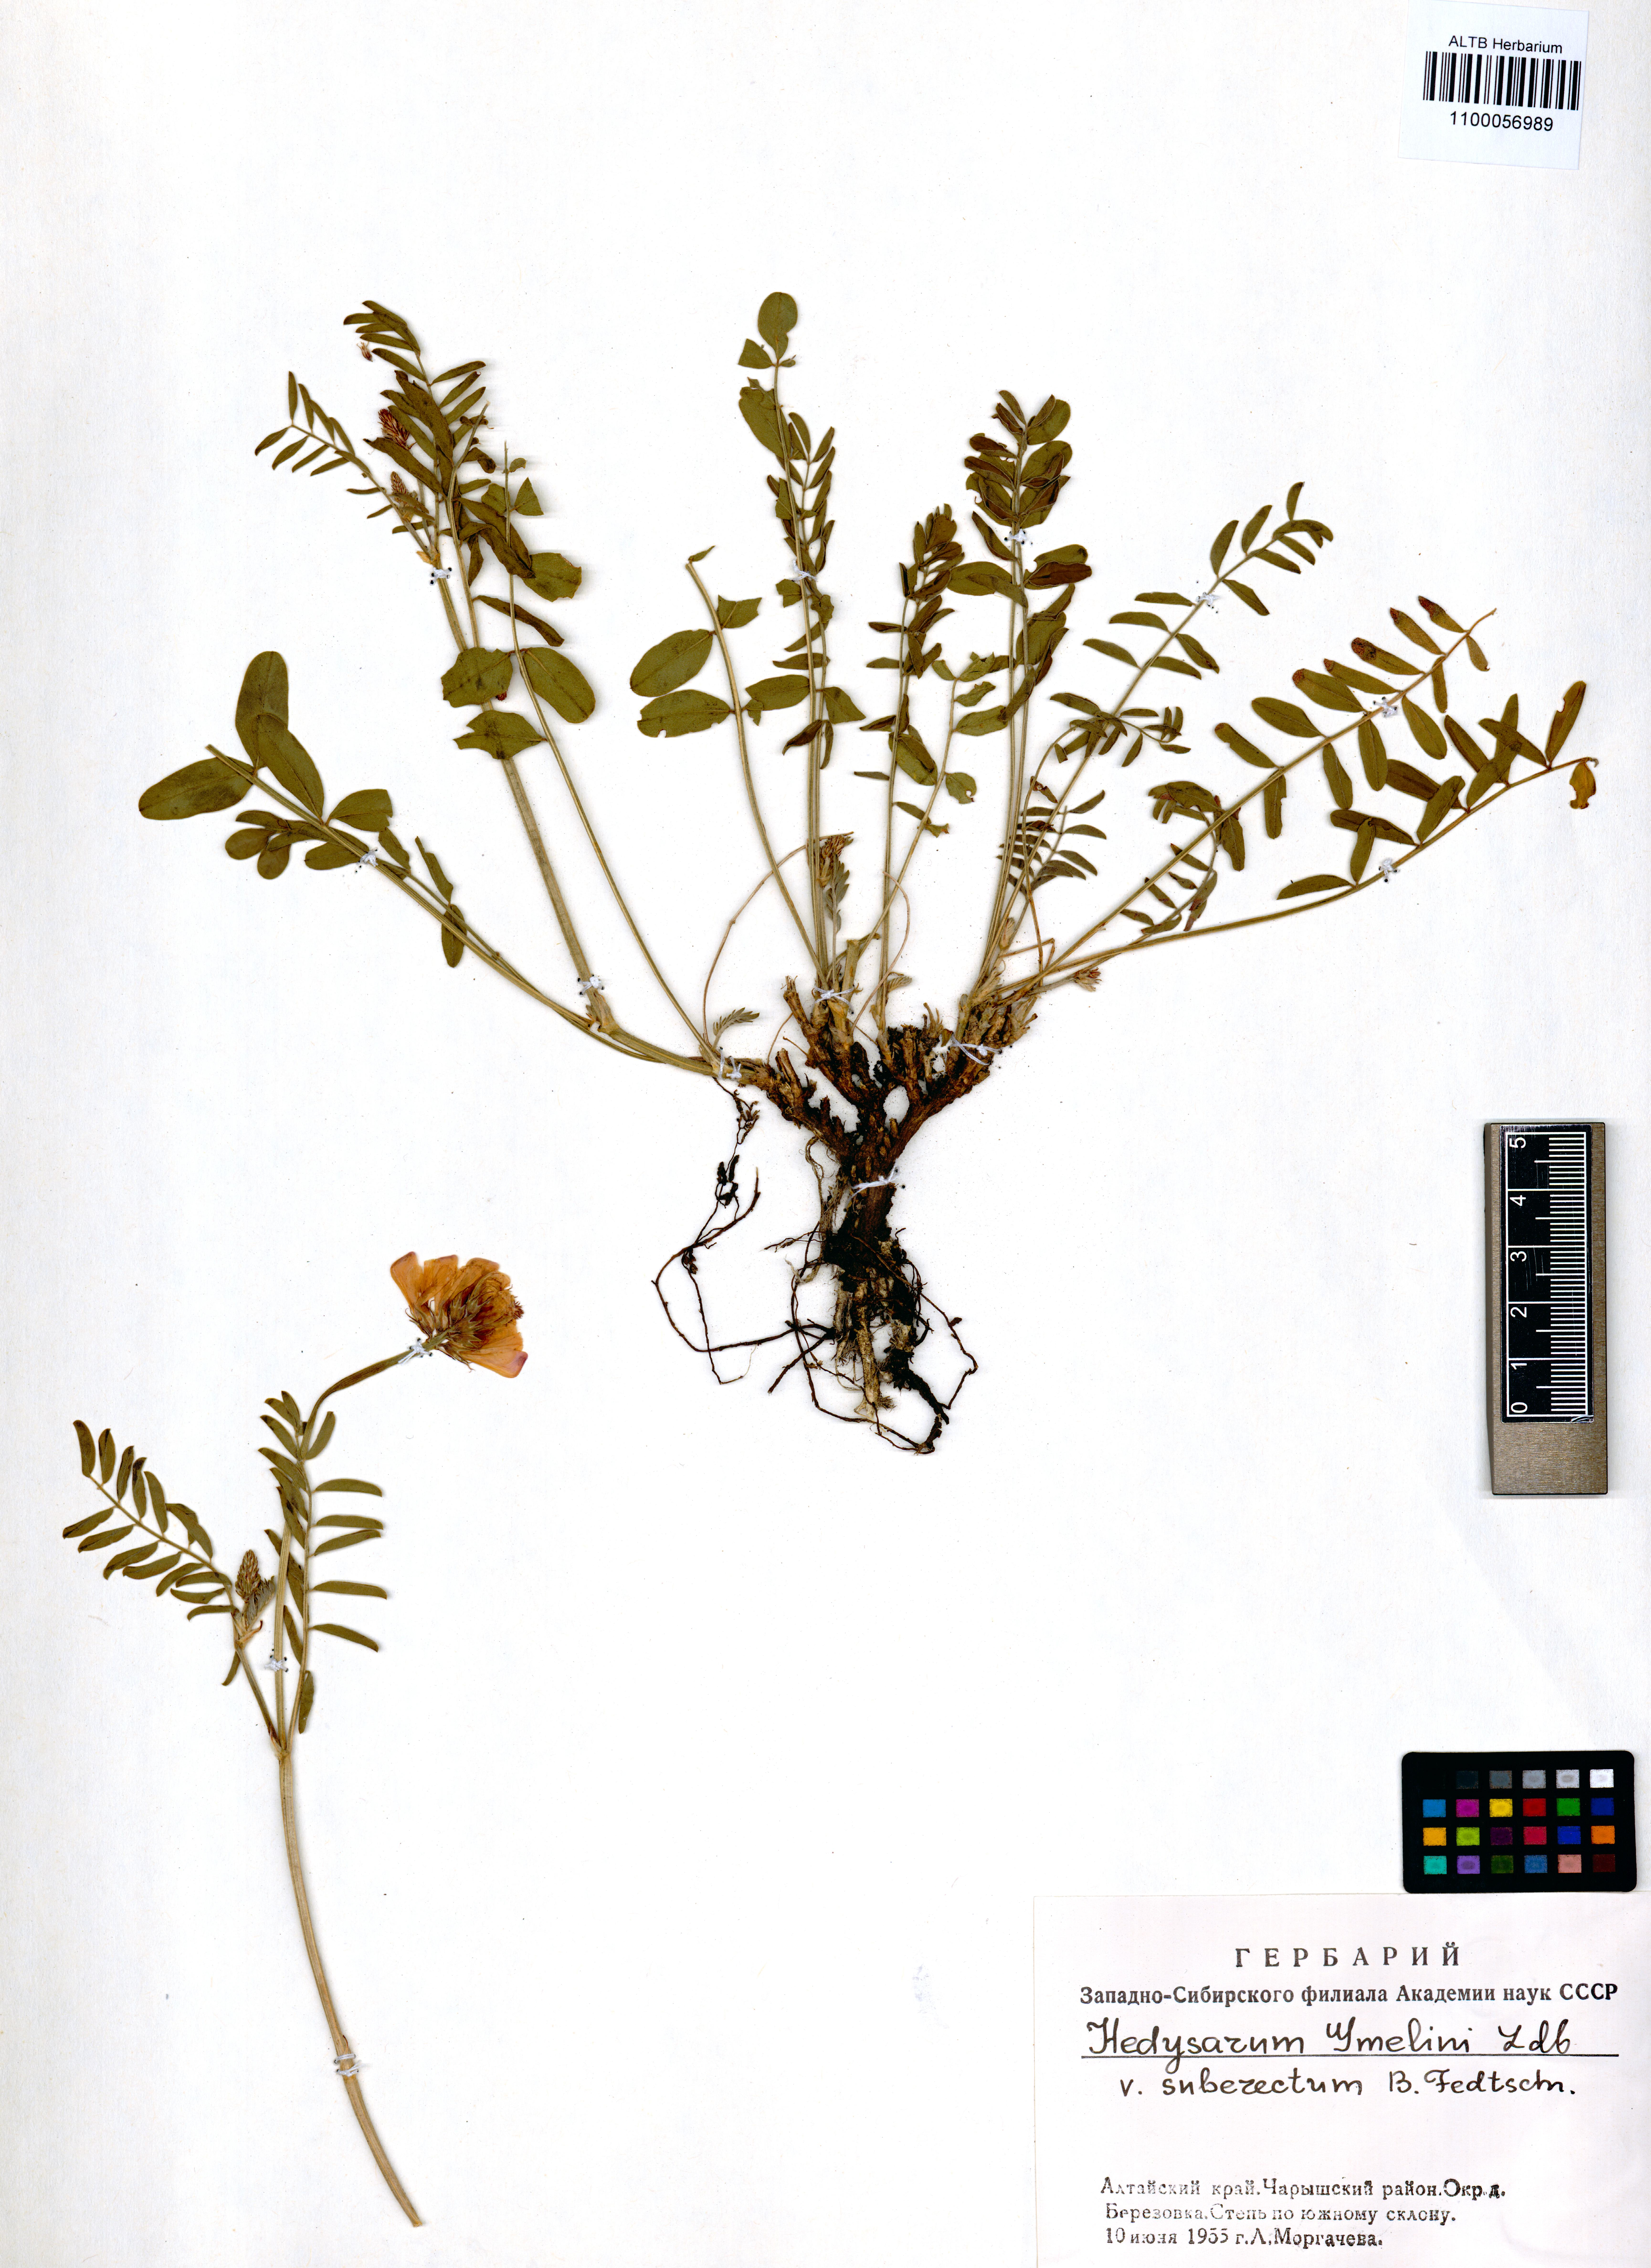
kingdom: Plantae
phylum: Tracheophyta
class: Magnoliopsida
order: Fabales
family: Fabaceae
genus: Hedysarum
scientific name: Hedysarum gmelinii
